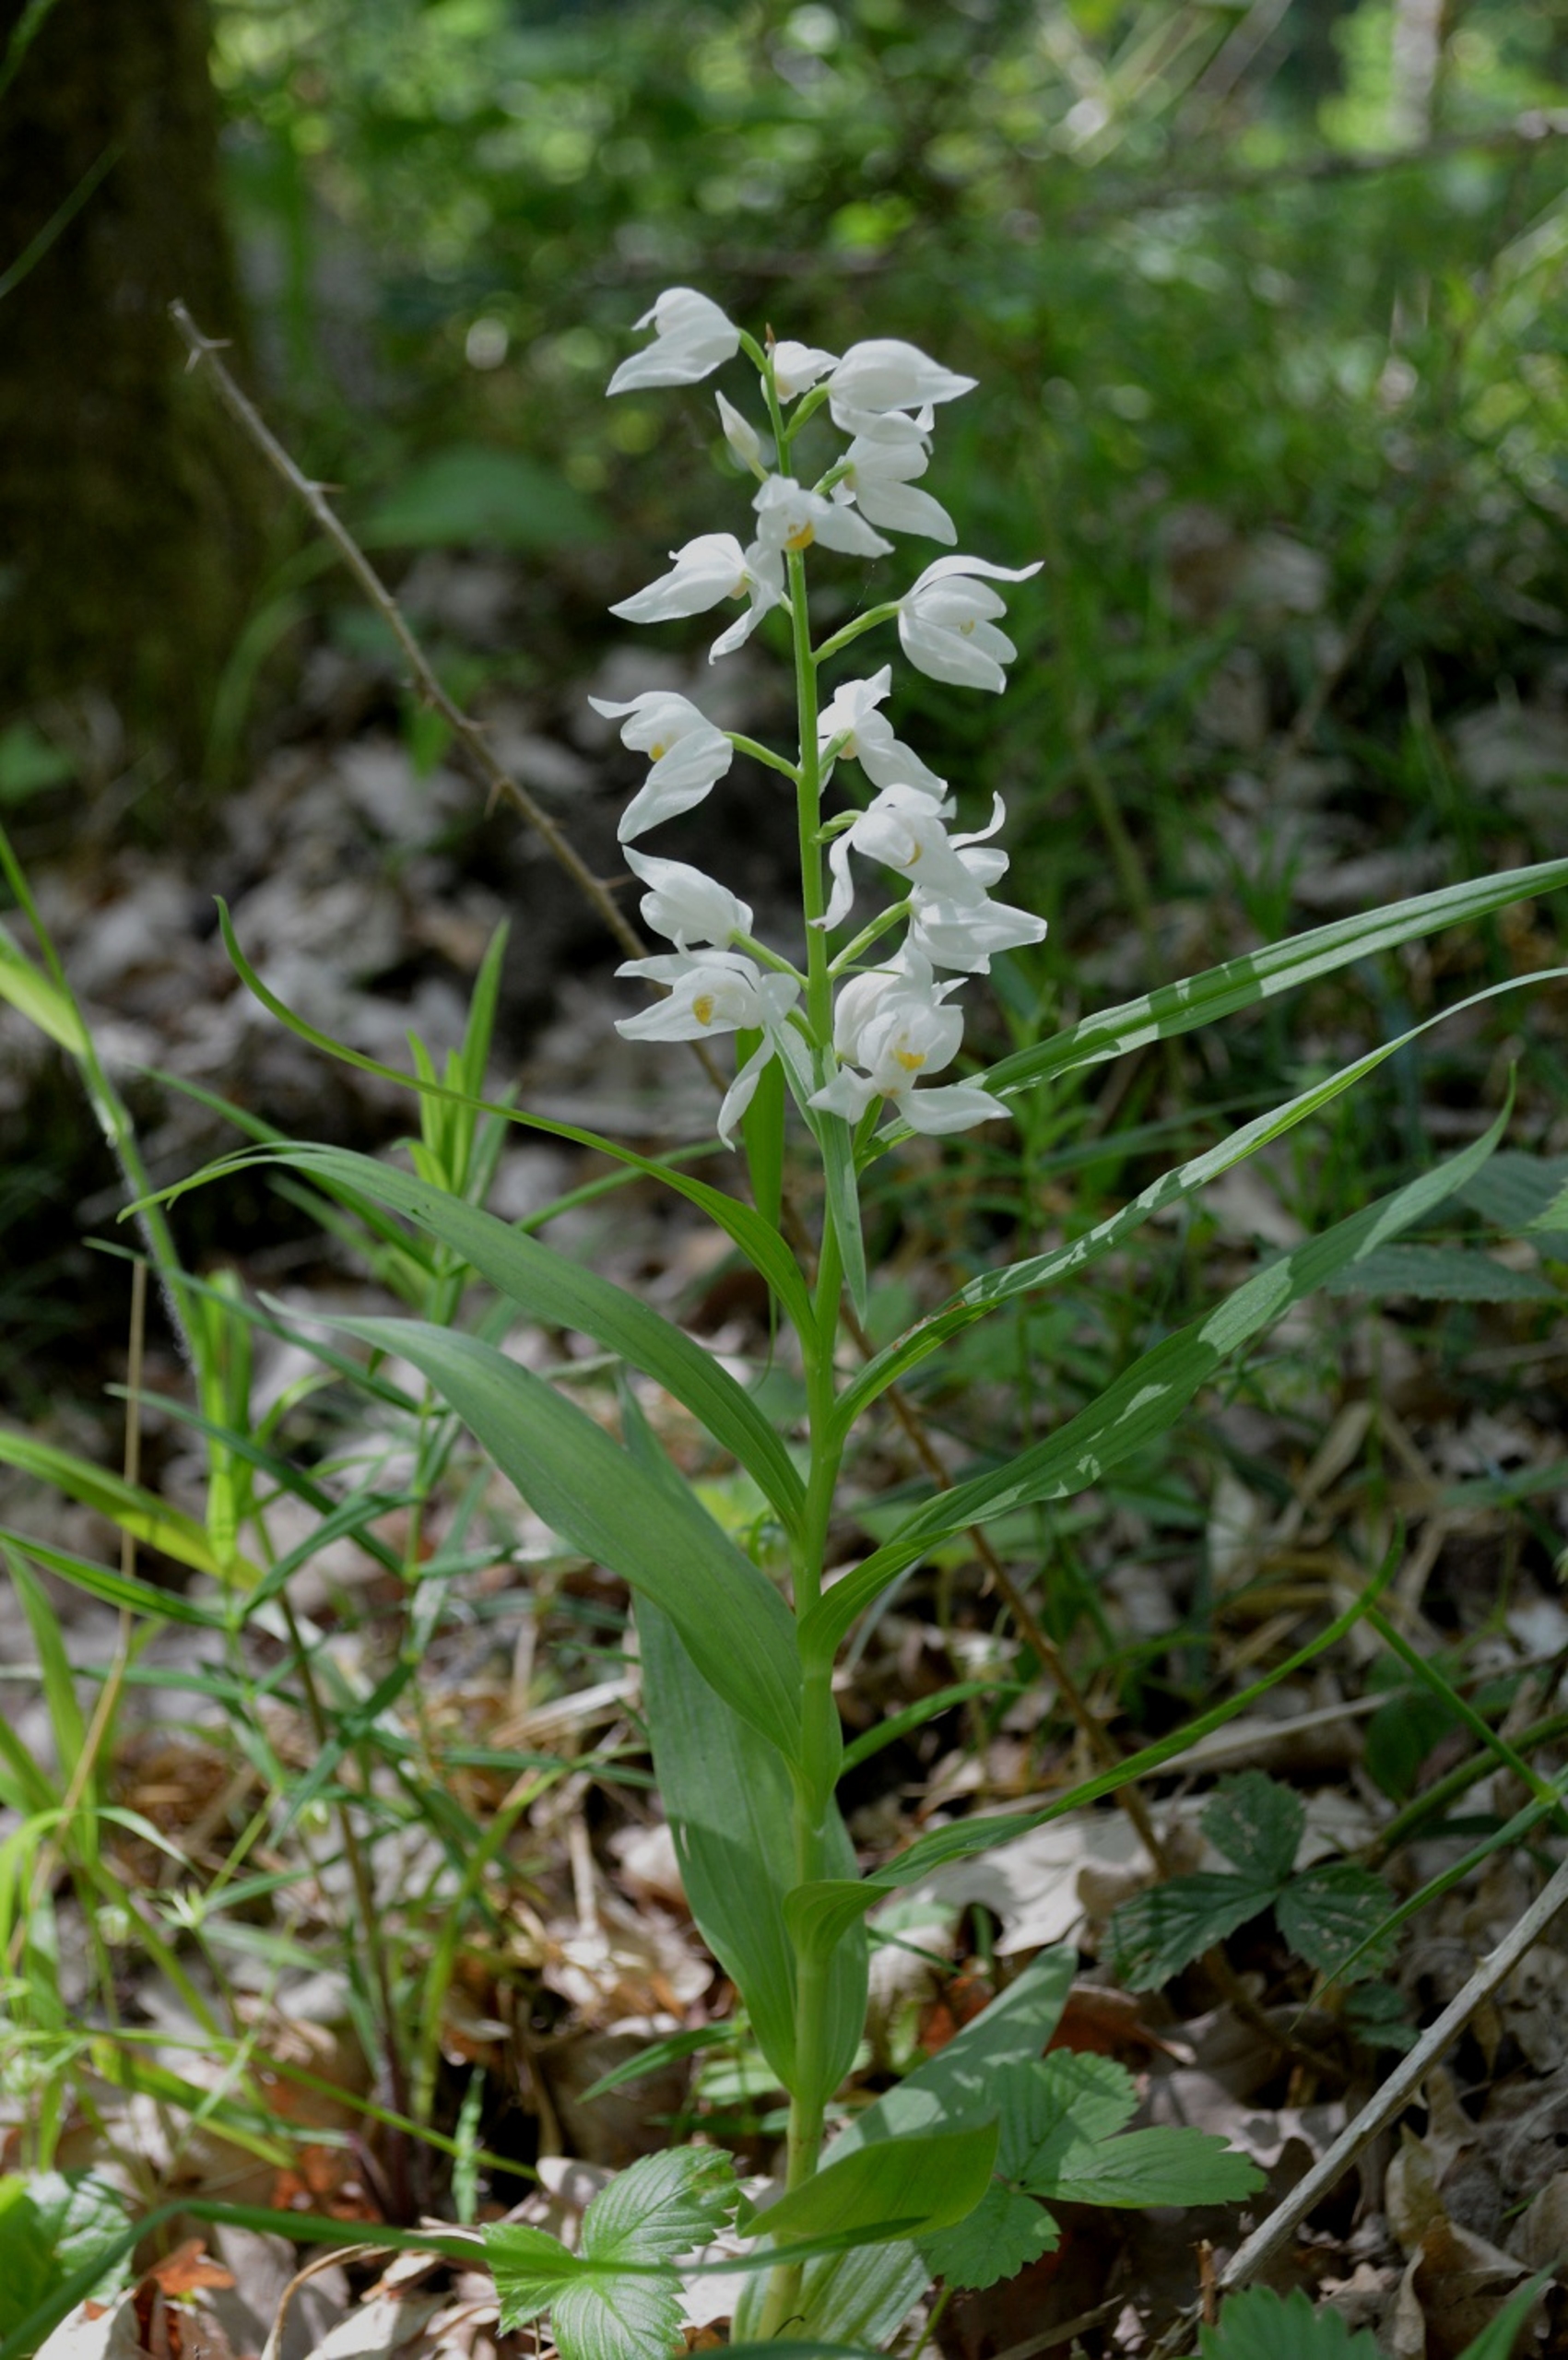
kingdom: Plantae
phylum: Tracheophyta
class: Liliopsida
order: Asparagales
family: Orchidaceae
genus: Cephalanthera
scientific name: Cephalanthera longifolia
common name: Sværd-skovlilje
